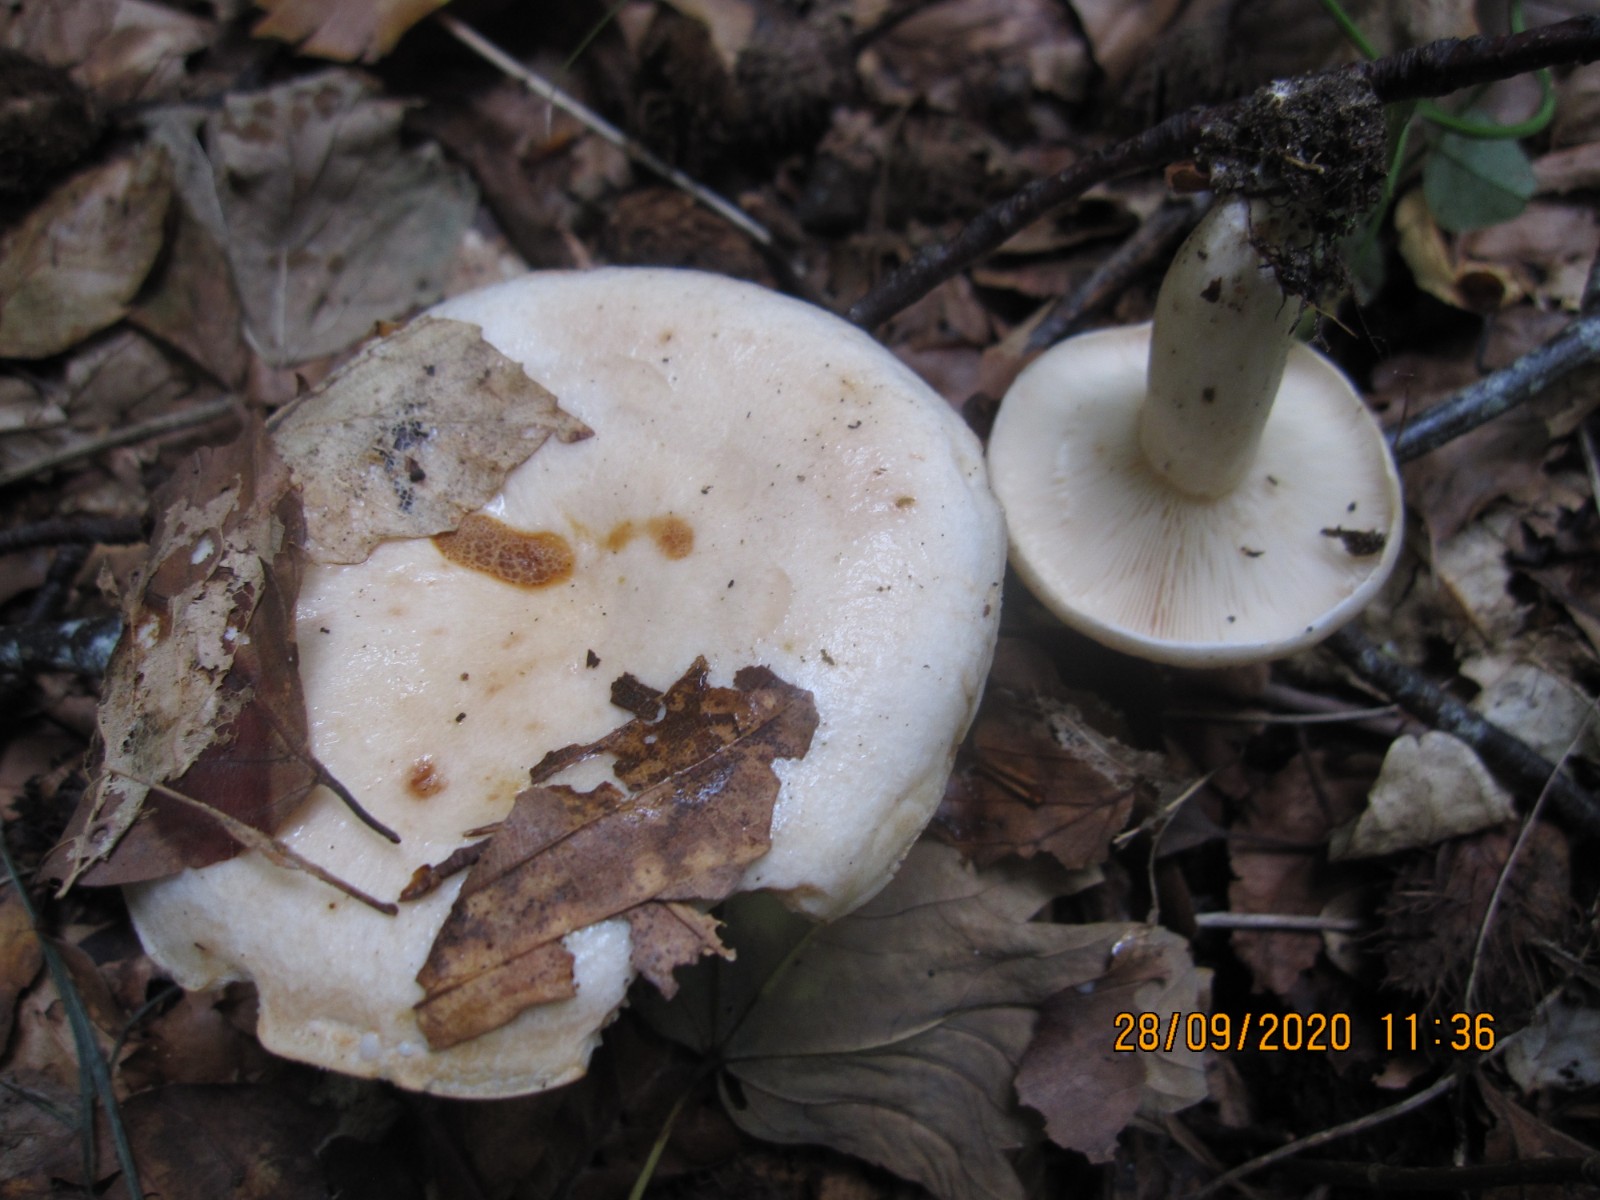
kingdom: Fungi
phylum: Basidiomycota
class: Agaricomycetes
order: Russulales
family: Russulaceae
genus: Lactarius
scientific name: Lactarius pallidus
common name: bleg mælkehat
